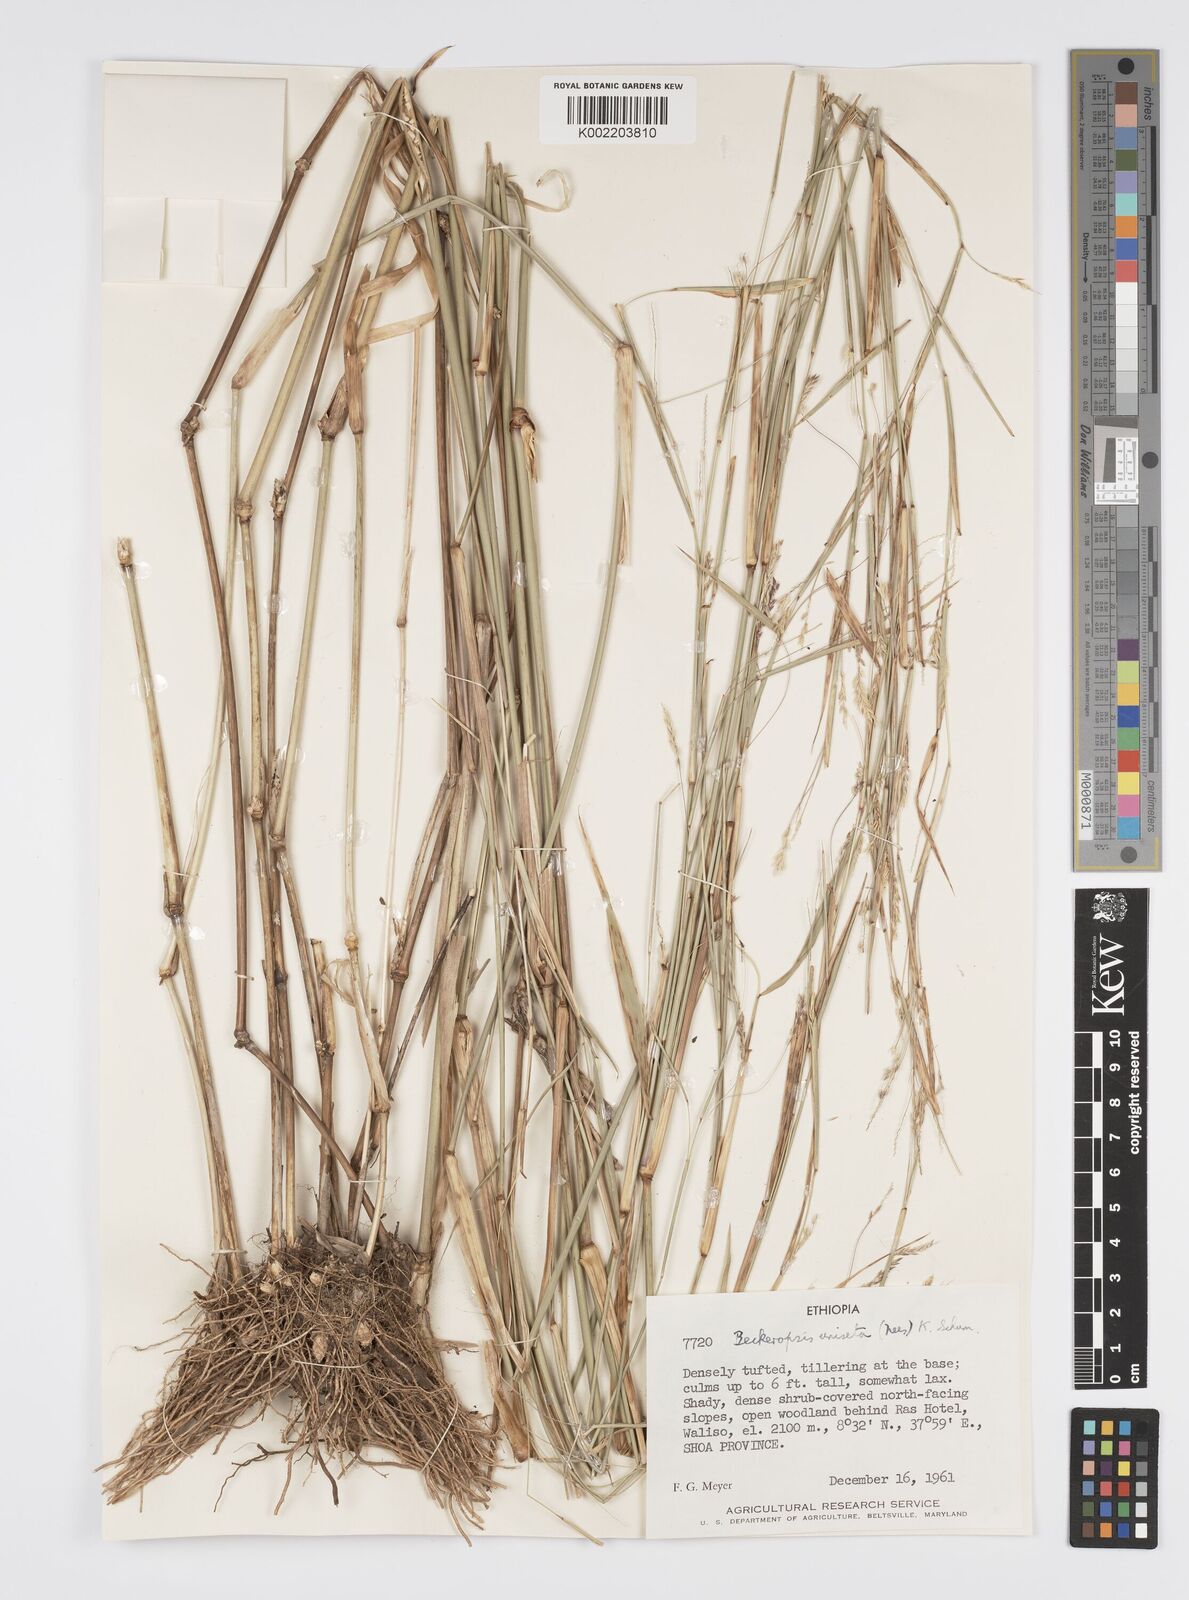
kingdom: Plantae
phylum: Tracheophyta
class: Liliopsida
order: Poales
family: Poaceae
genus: Cenchrus
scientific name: Cenchrus unisetus
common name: Natal grass
